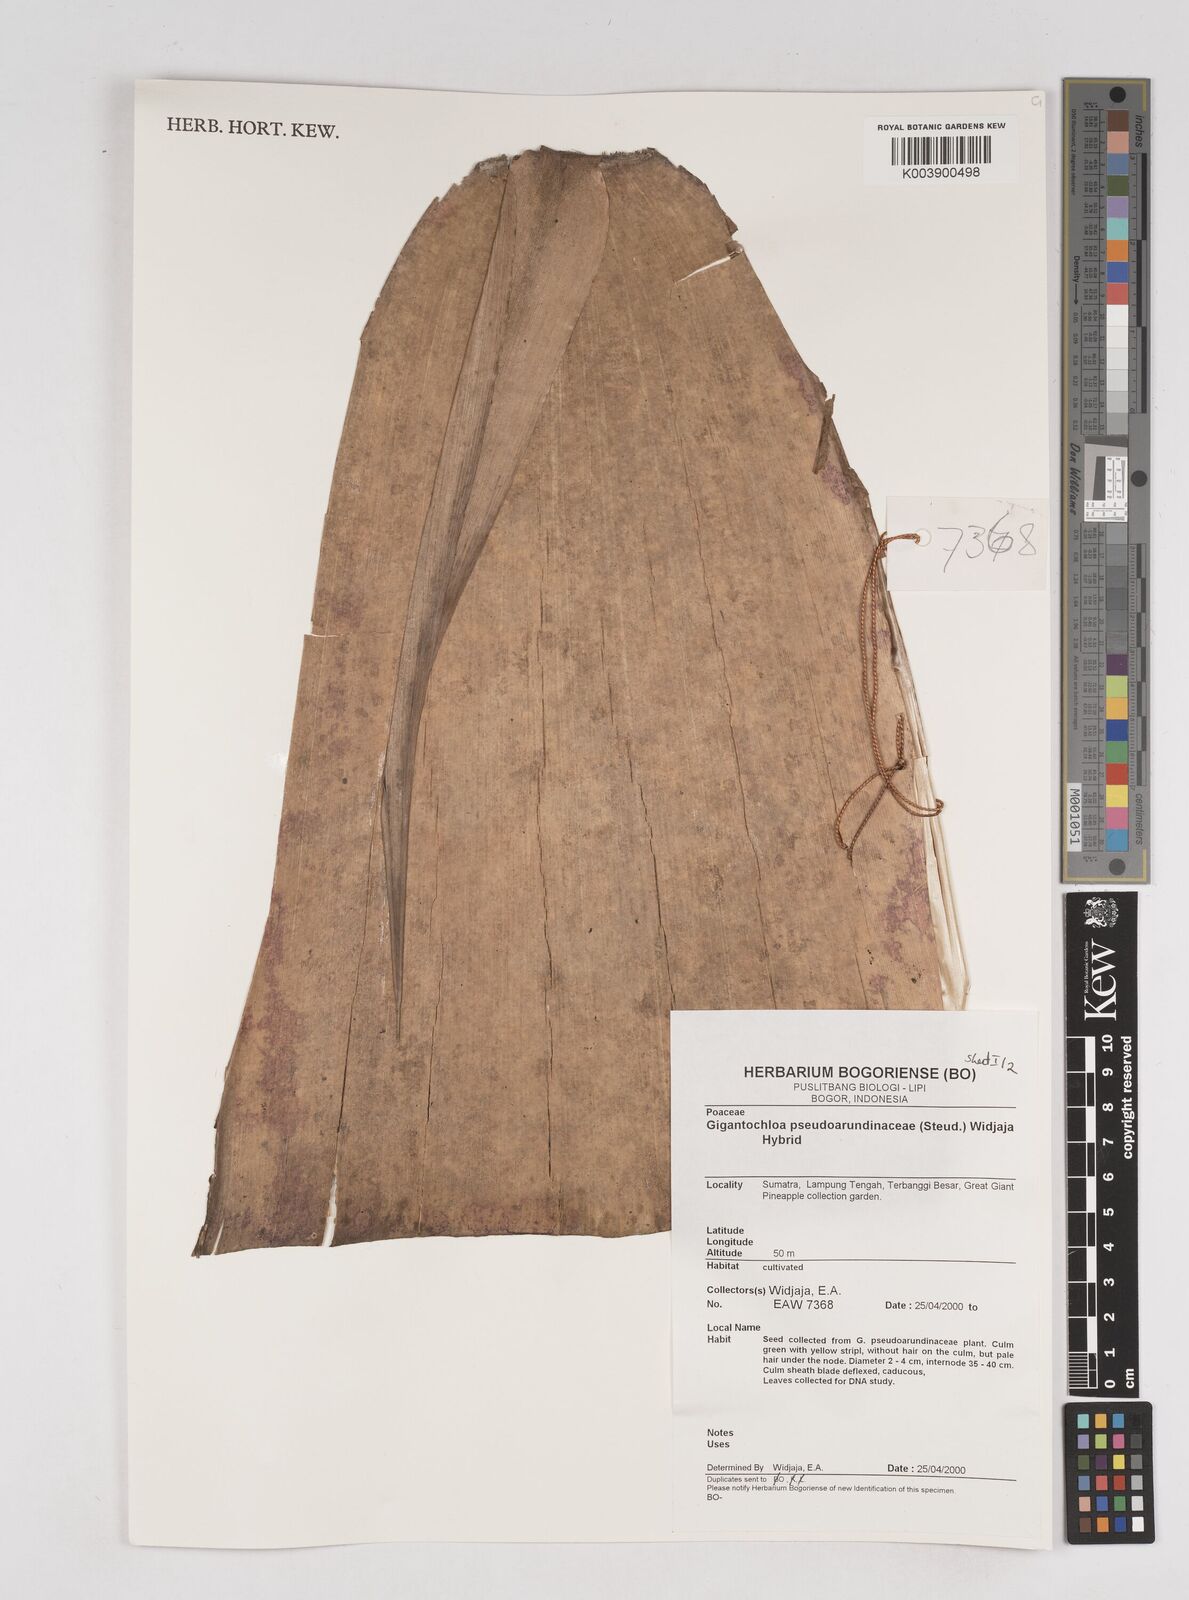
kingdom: Plantae
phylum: Tracheophyta
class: Liliopsida
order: Poales
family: Poaceae
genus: Gigantochloa
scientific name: Gigantochloa verticillata
